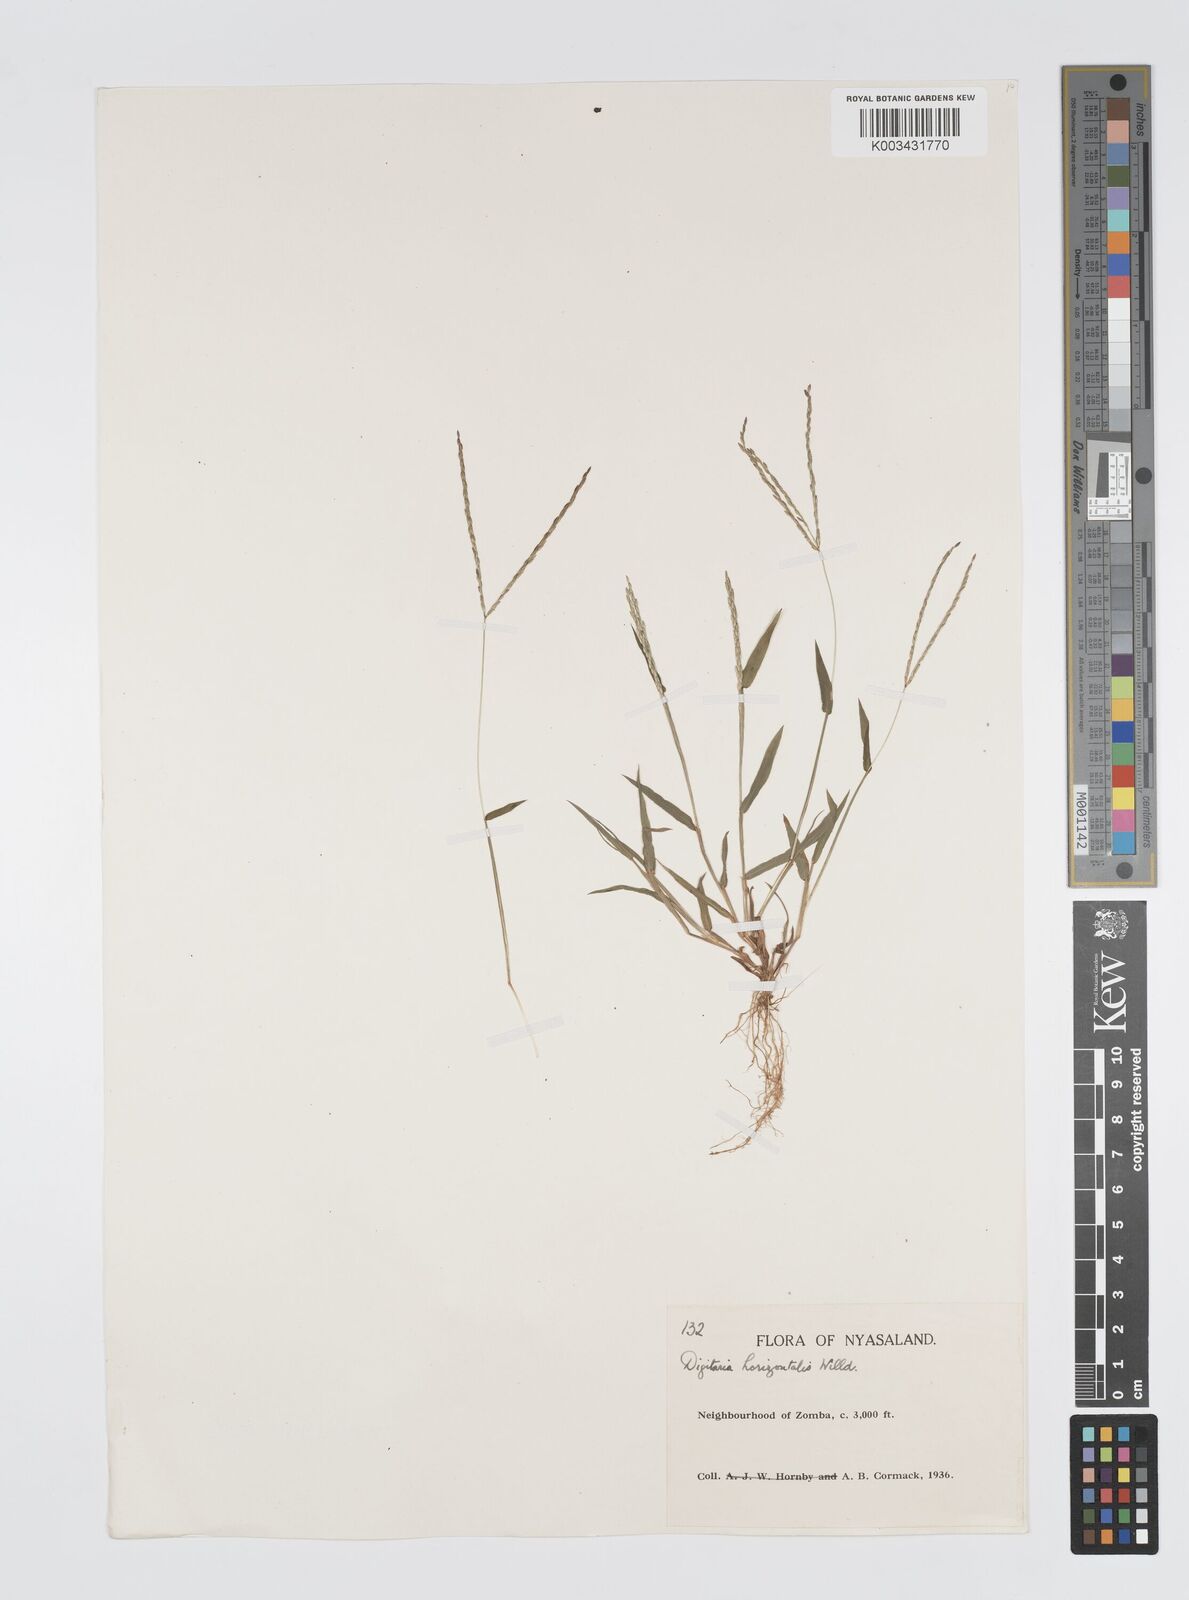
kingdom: Plantae
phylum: Tracheophyta
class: Liliopsida
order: Poales
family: Poaceae
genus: Digitaria
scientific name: Digitaria nuda
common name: Naked crabgrass
